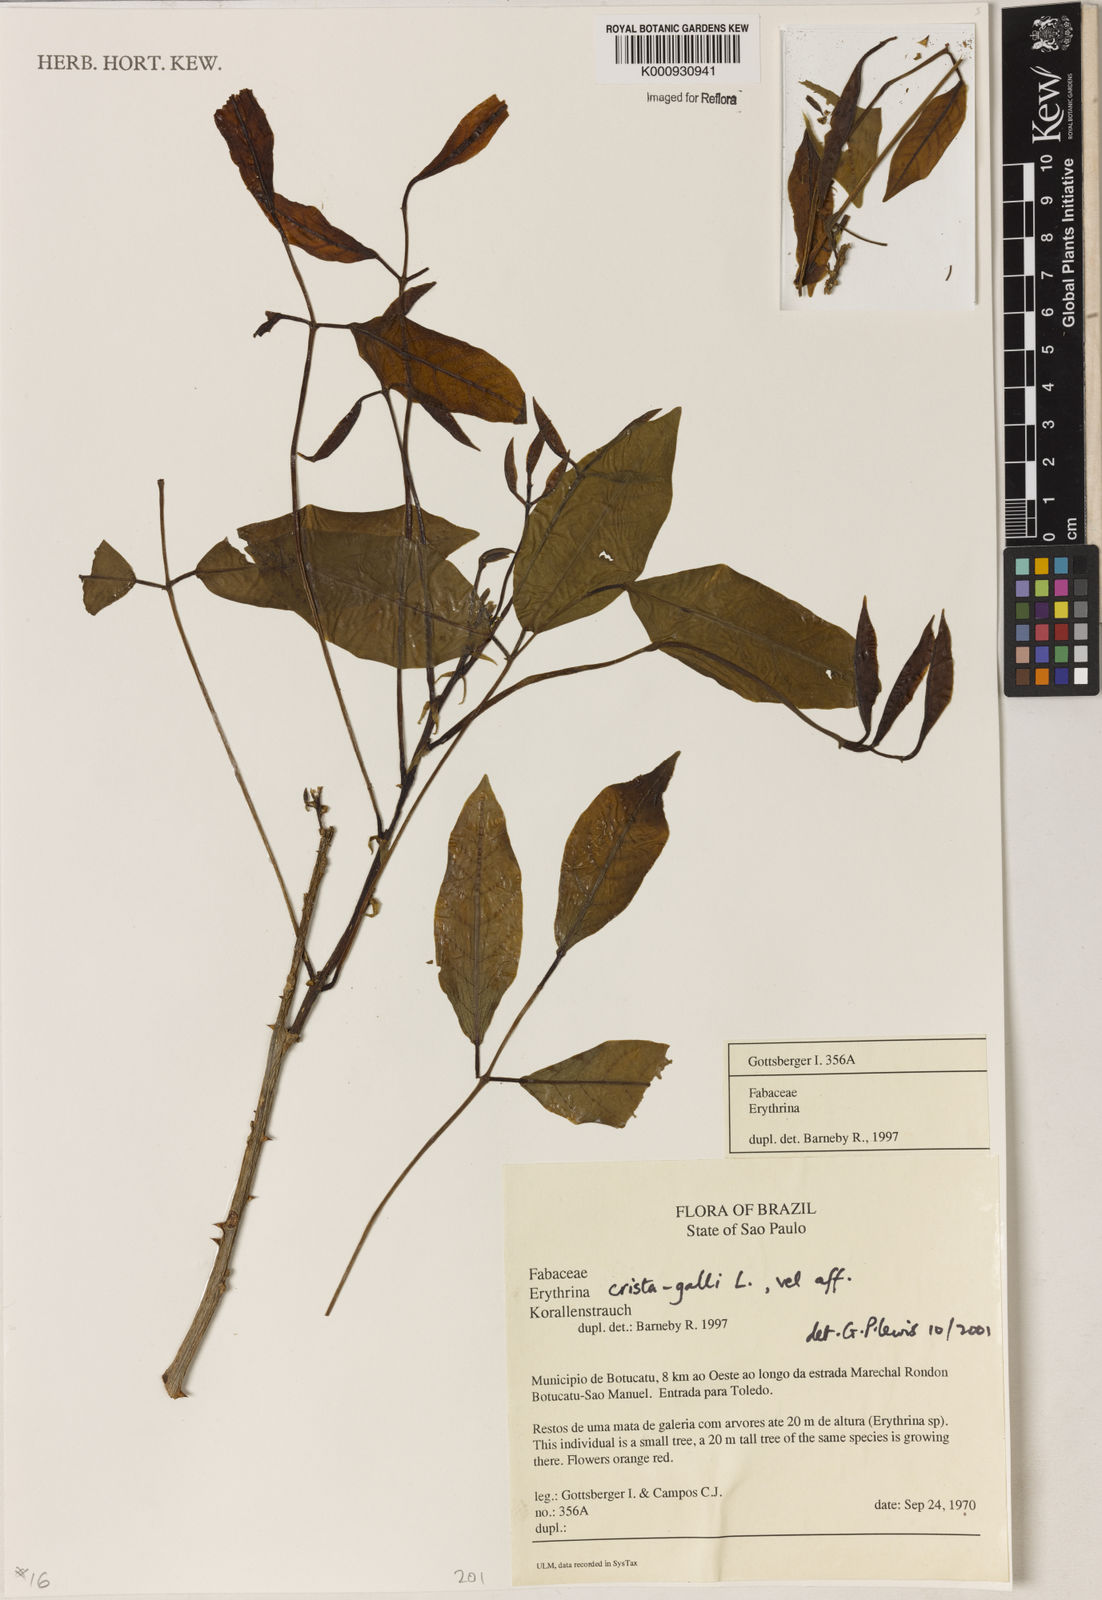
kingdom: Plantae
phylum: Tracheophyta
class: Magnoliopsida
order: Fabales
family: Fabaceae
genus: Erythrina
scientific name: Erythrina crista-galli
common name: Cockspur coral tree
